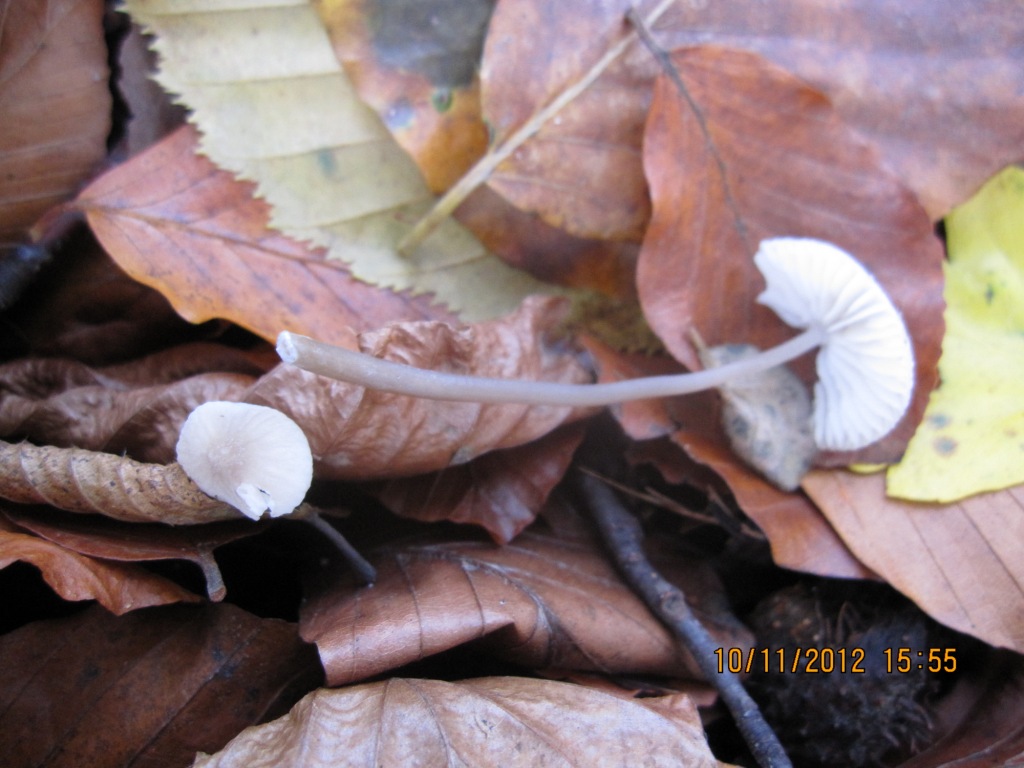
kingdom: Fungi
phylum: Basidiomycota
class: Agaricomycetes
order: Agaricales
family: Mycenaceae
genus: Mycena
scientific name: Mycena galopus
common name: hvidmælket huesvamp
